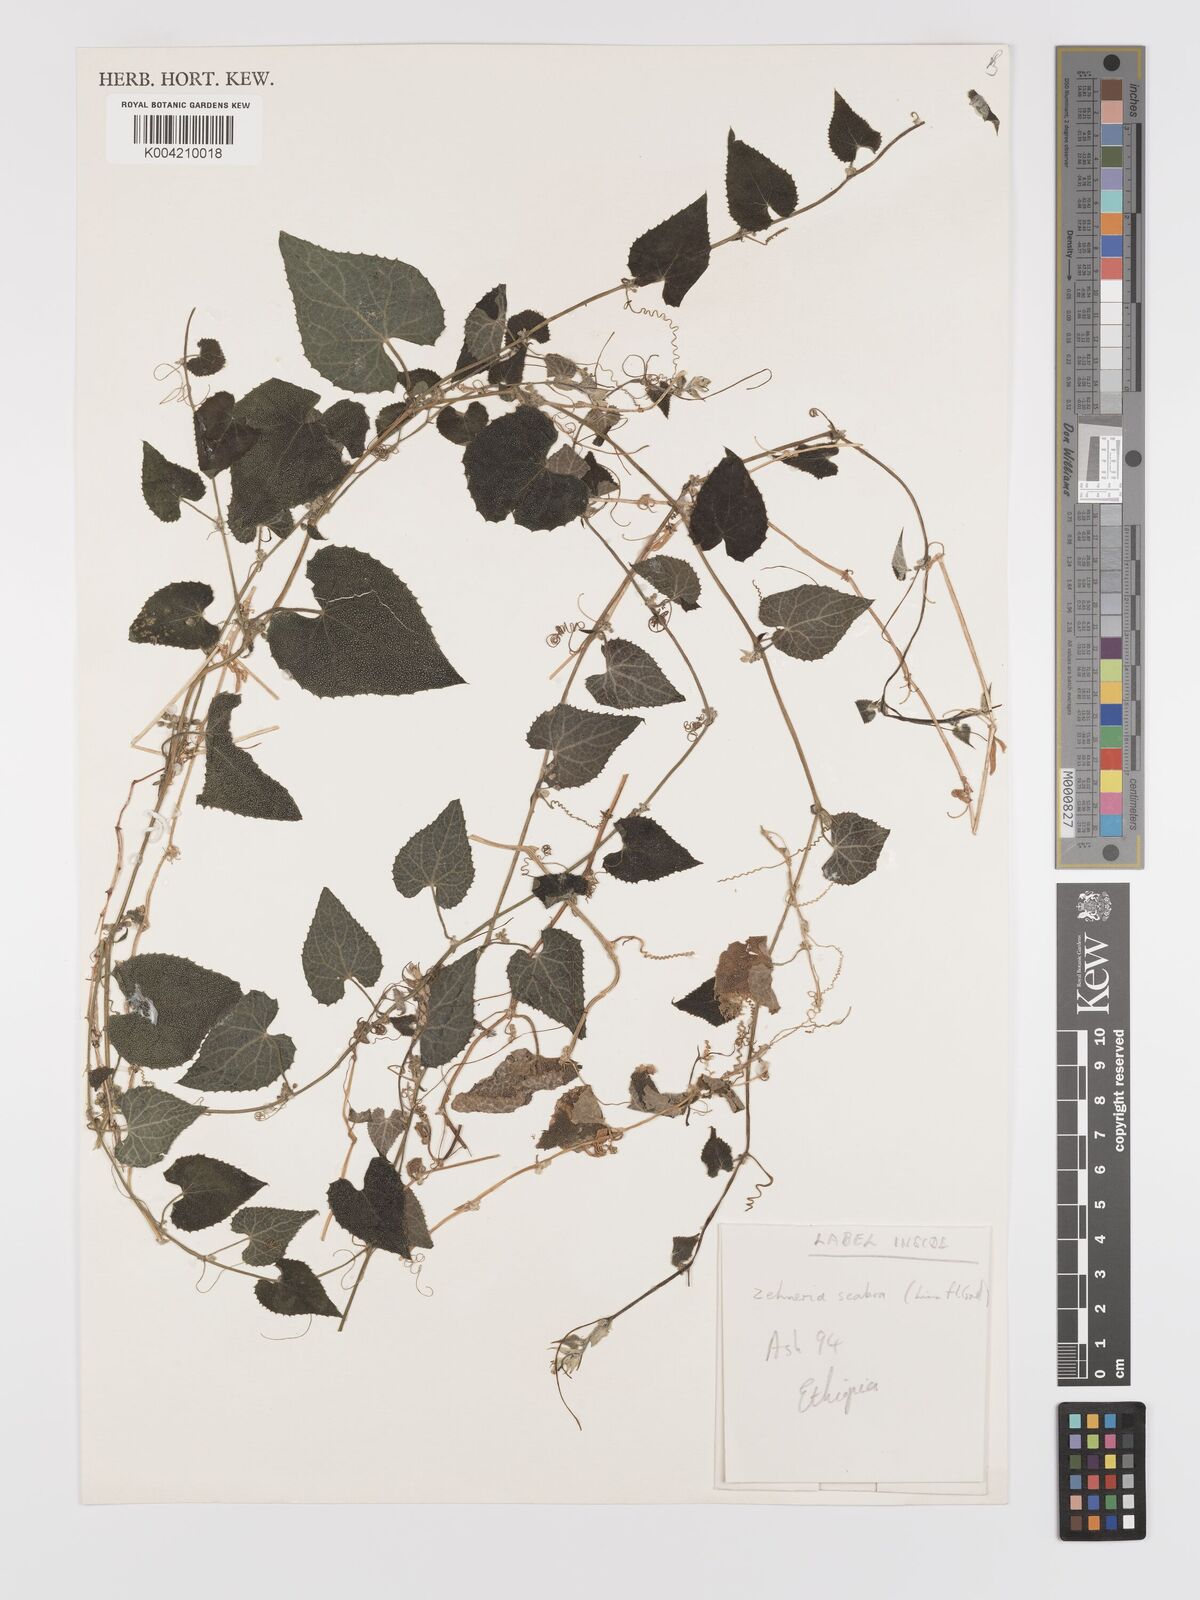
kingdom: Plantae
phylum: Tracheophyta
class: Magnoliopsida
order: Cucurbitales
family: Cucurbitaceae
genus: Zehneria
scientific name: Zehneria scabra
